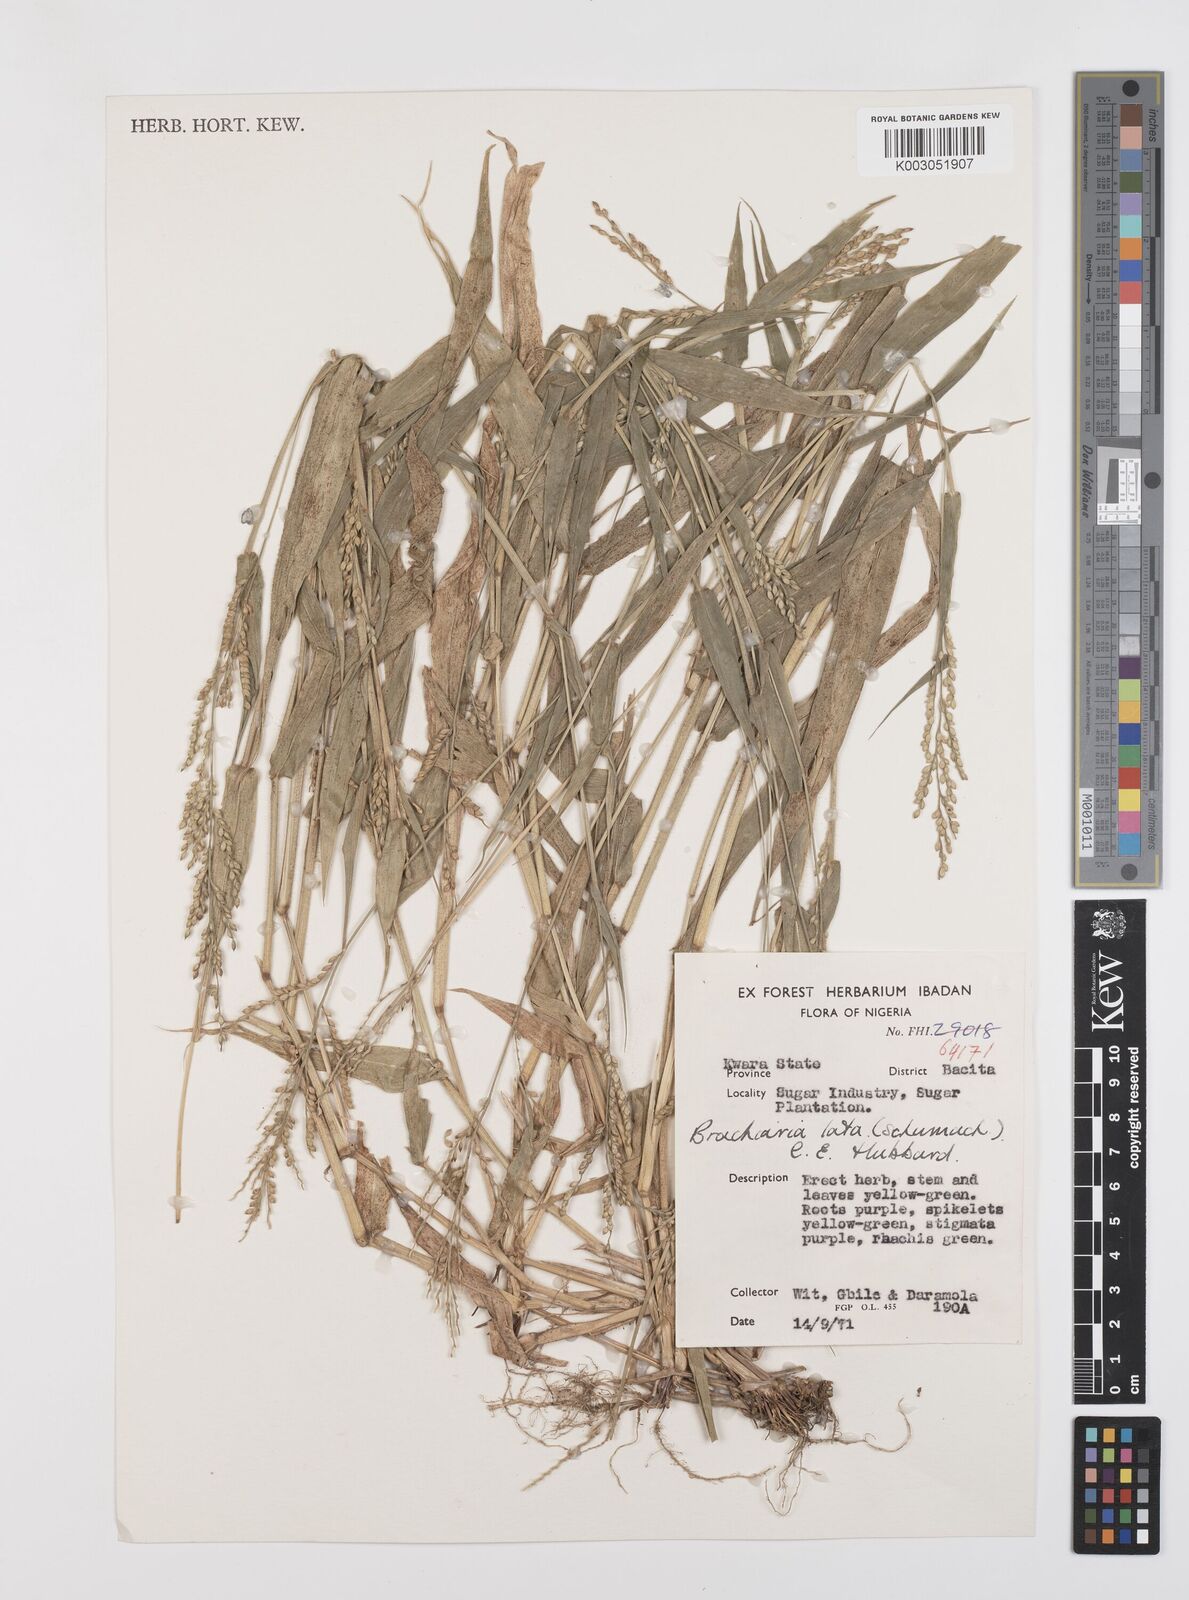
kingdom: Plantae
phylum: Tracheophyta
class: Liliopsida
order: Poales
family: Poaceae
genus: Urochloa
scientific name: Urochloa lata
